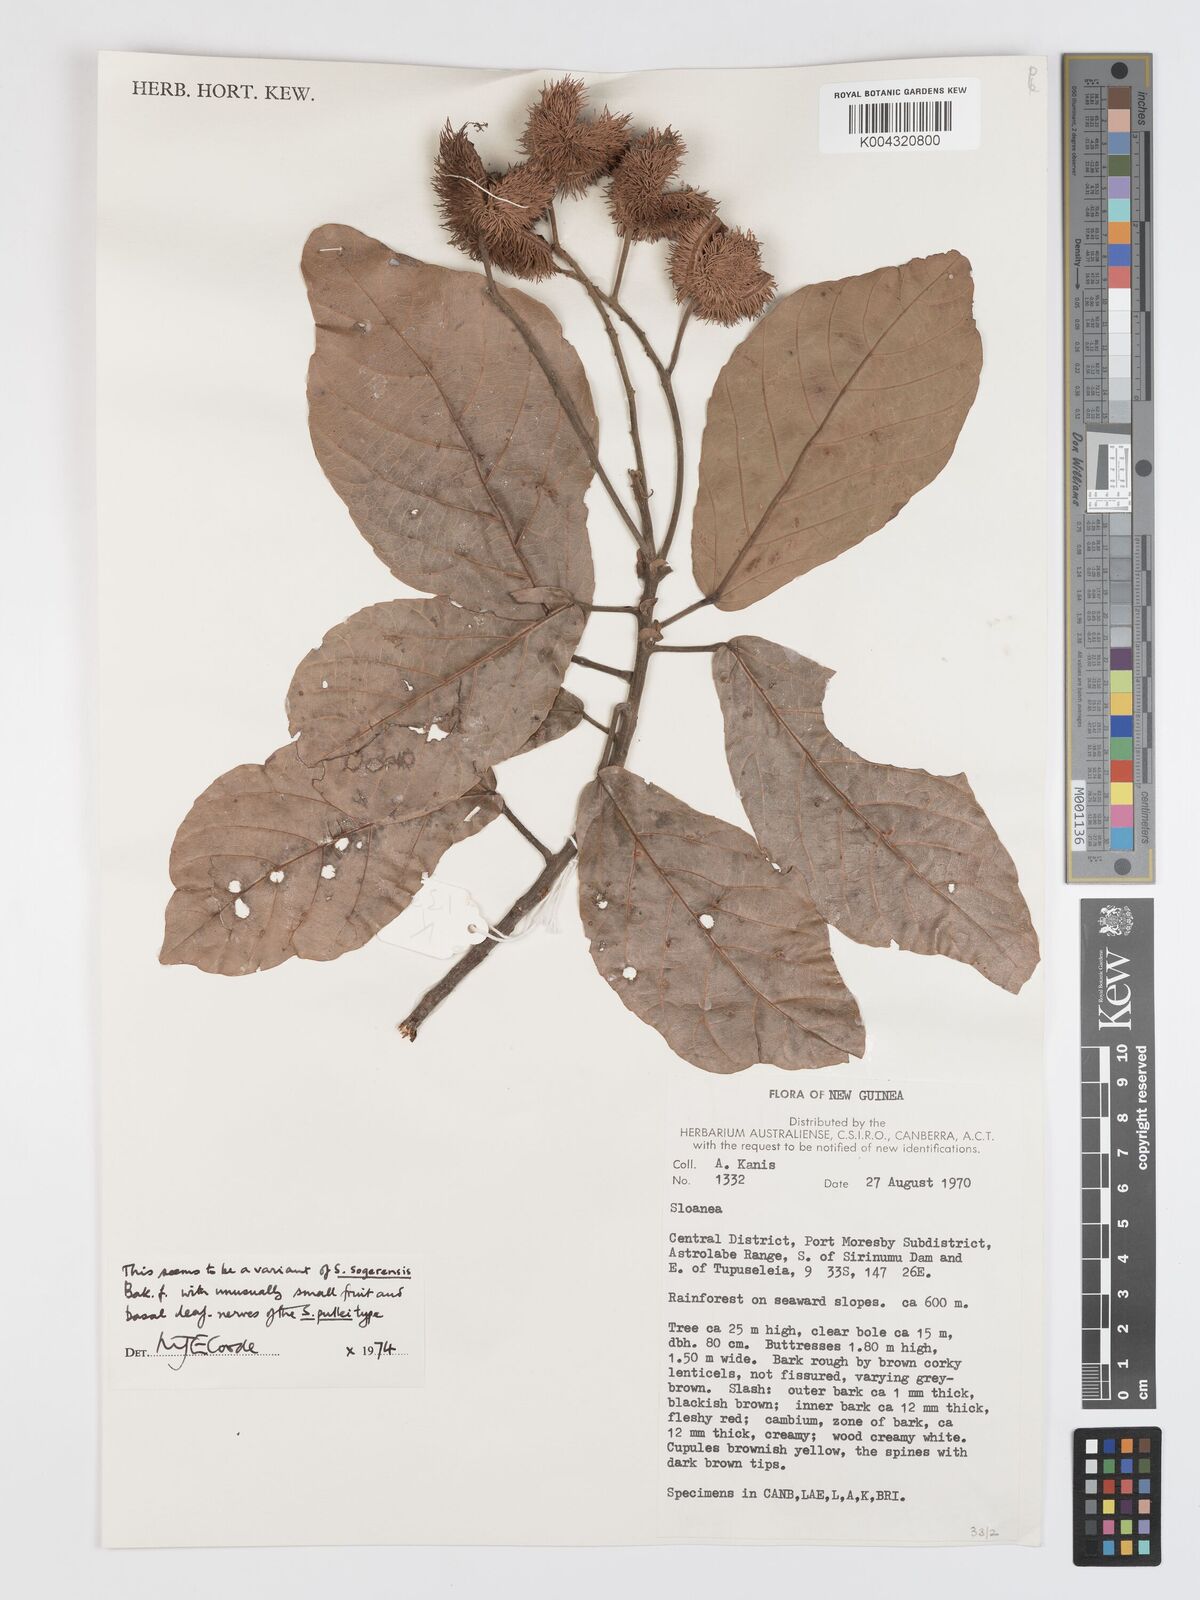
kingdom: Plantae
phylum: Tracheophyta
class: Magnoliopsida
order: Oxalidales
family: Elaeocarpaceae
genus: Sloanea
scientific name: Sloanea sogerensis
